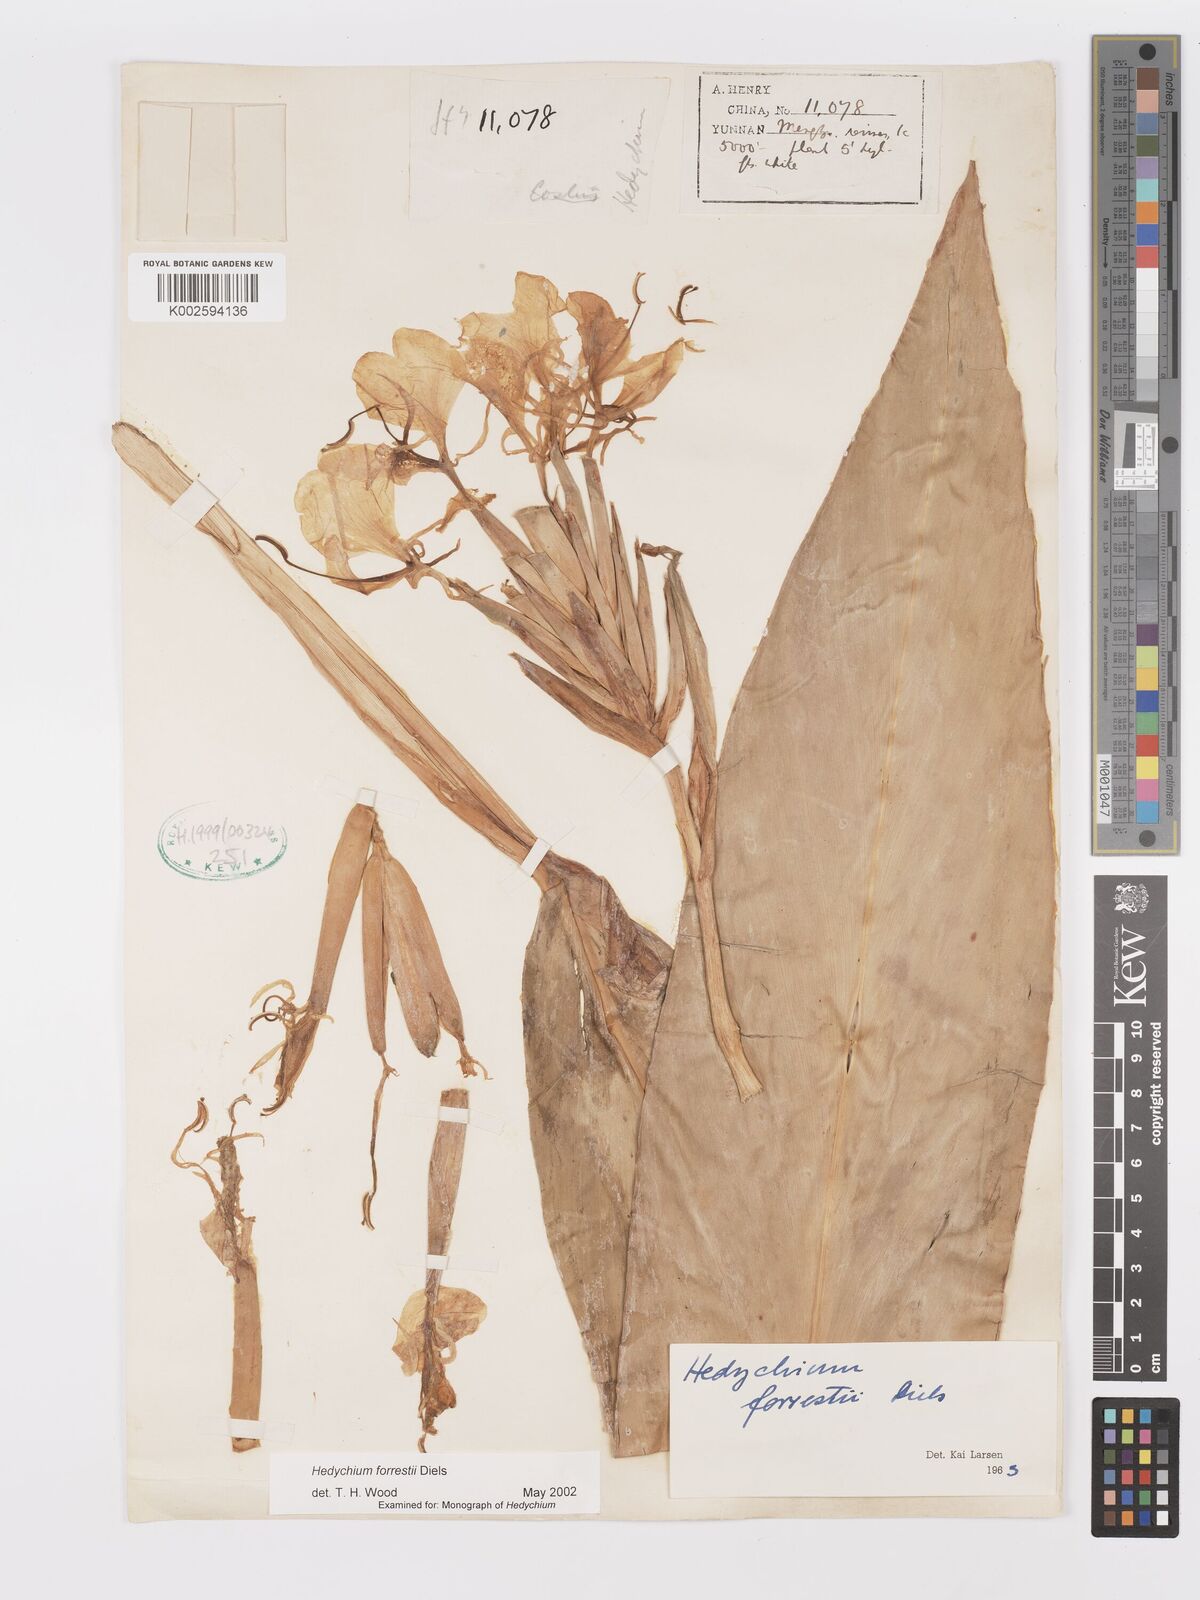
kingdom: Plantae
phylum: Tracheophyta
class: Liliopsida
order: Zingiberales
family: Zingiberaceae
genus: Hedychium
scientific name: Hedychium forrestii
